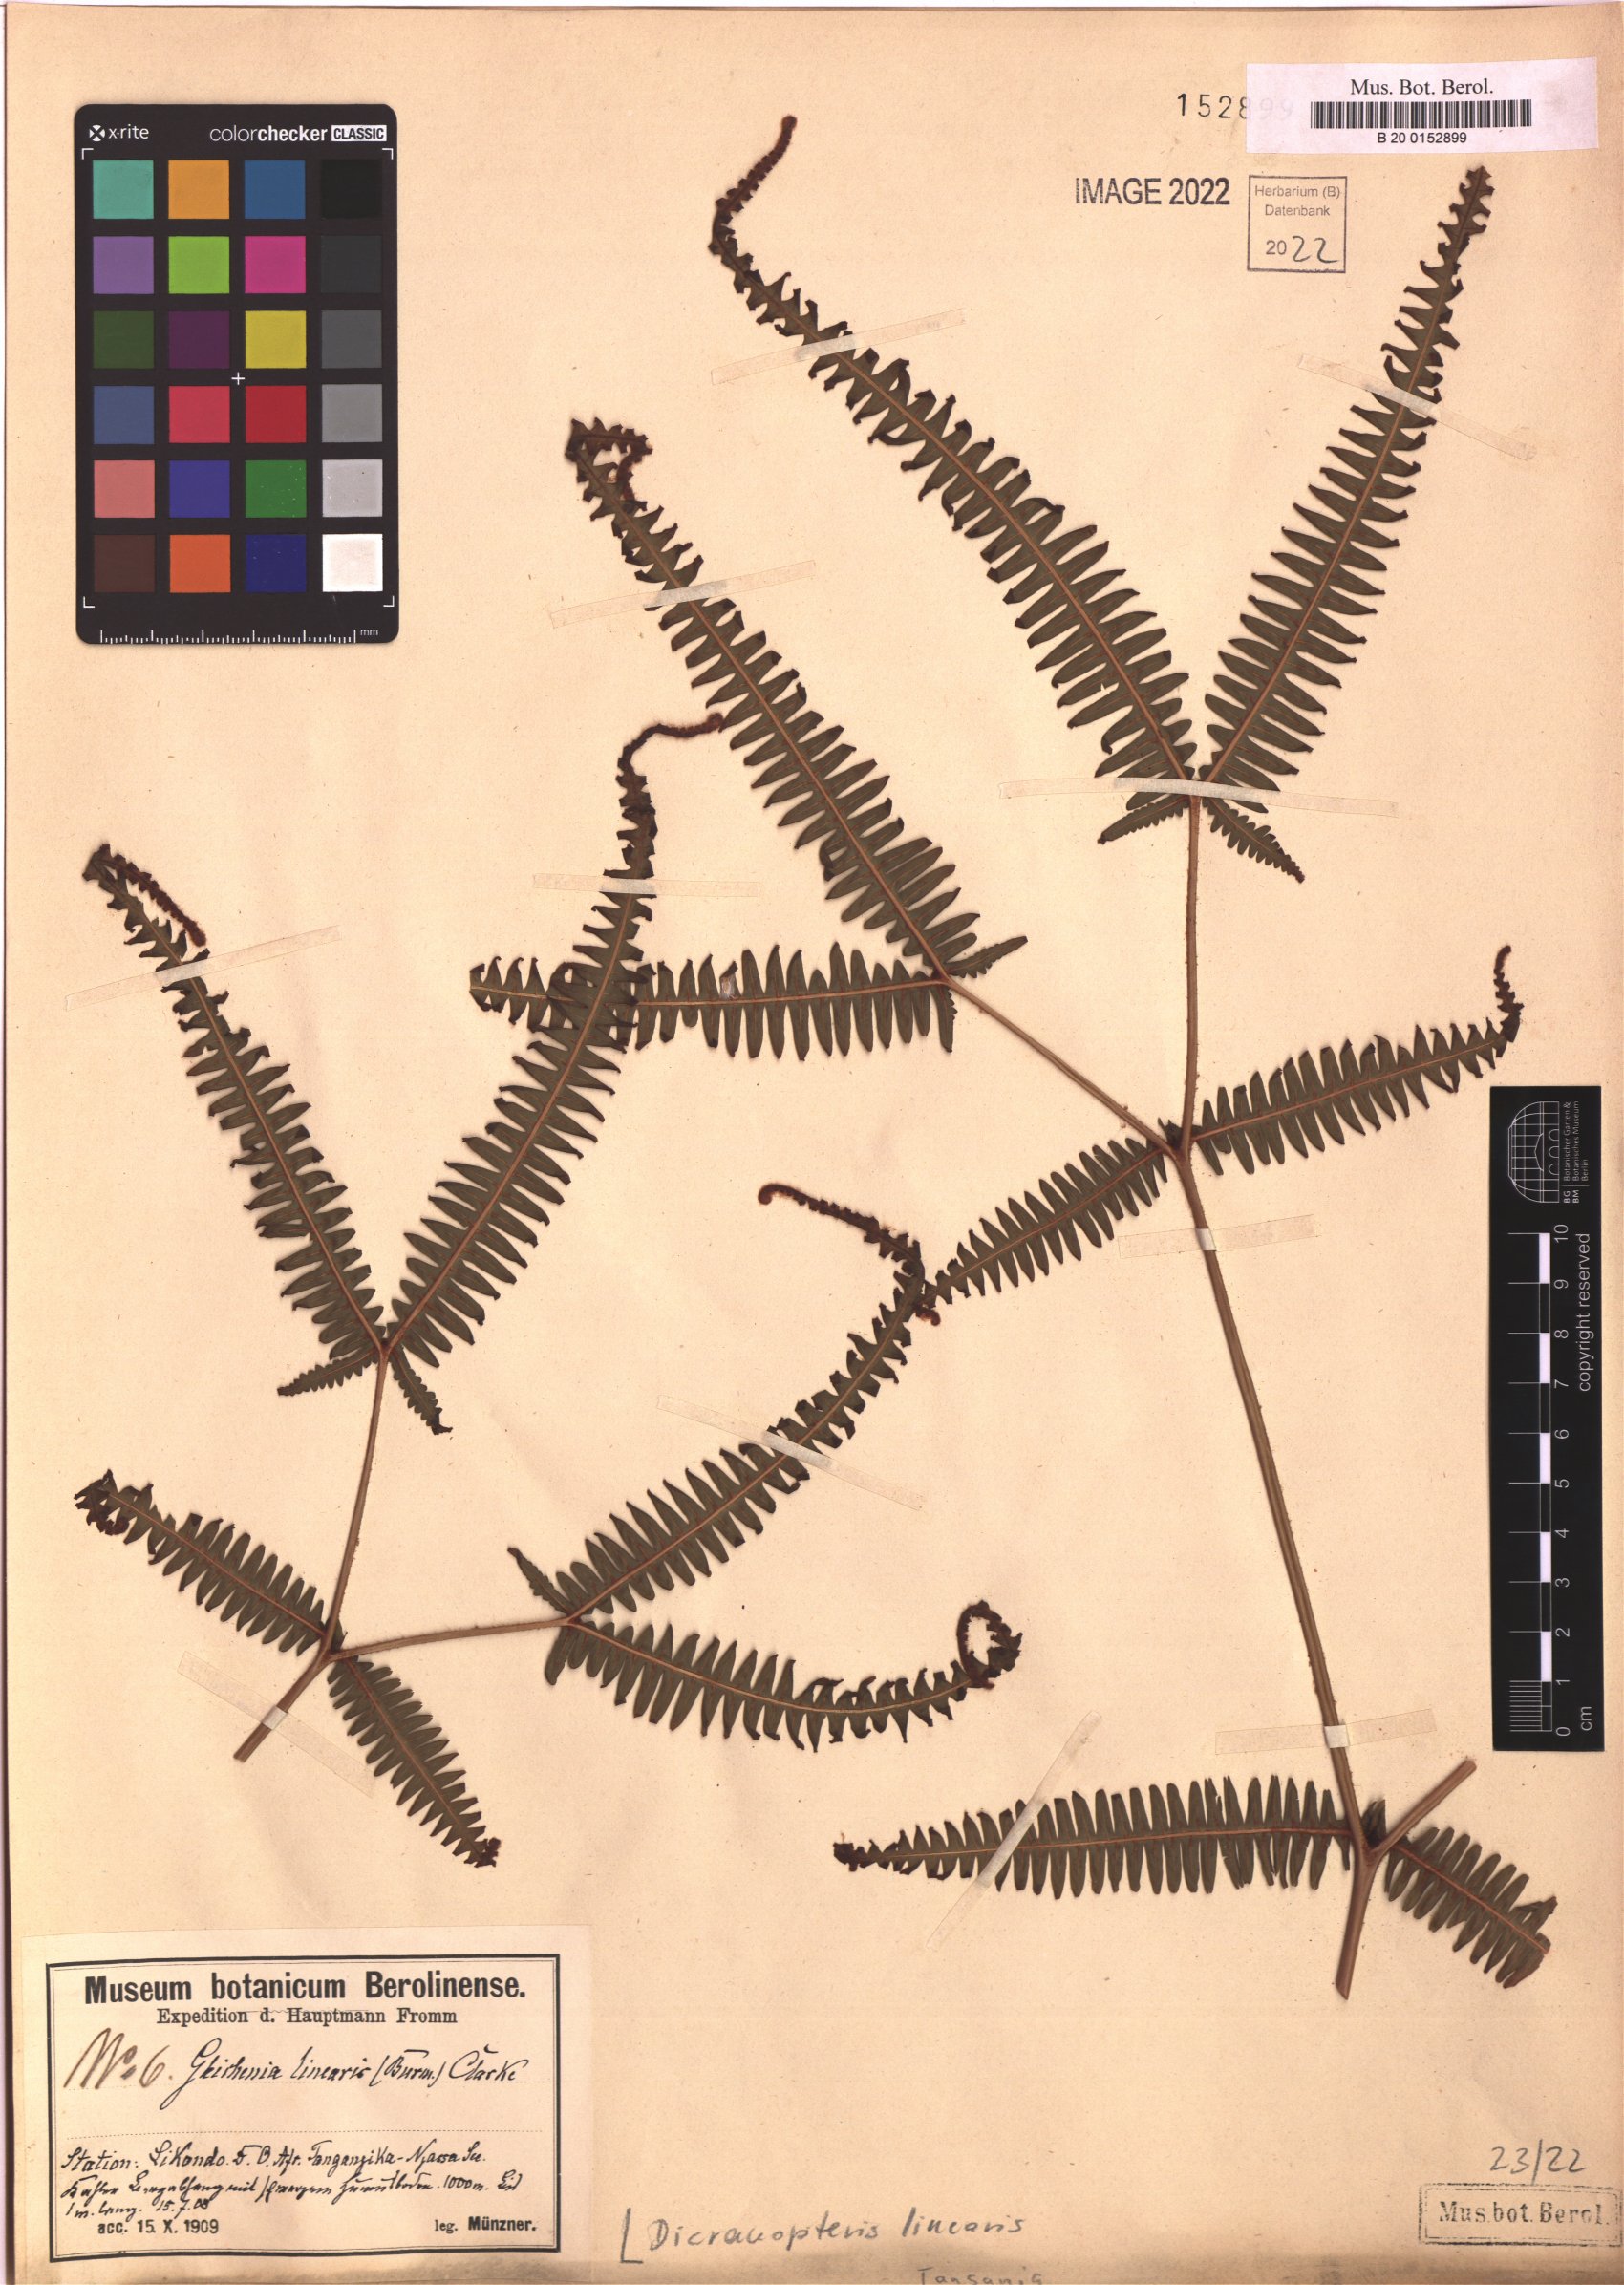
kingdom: Plantae
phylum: Tracheophyta
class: Polypodiopsida
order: Gleicheniales
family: Gleicheniaceae
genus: Dicranopteris
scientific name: Dicranopteris linearis
